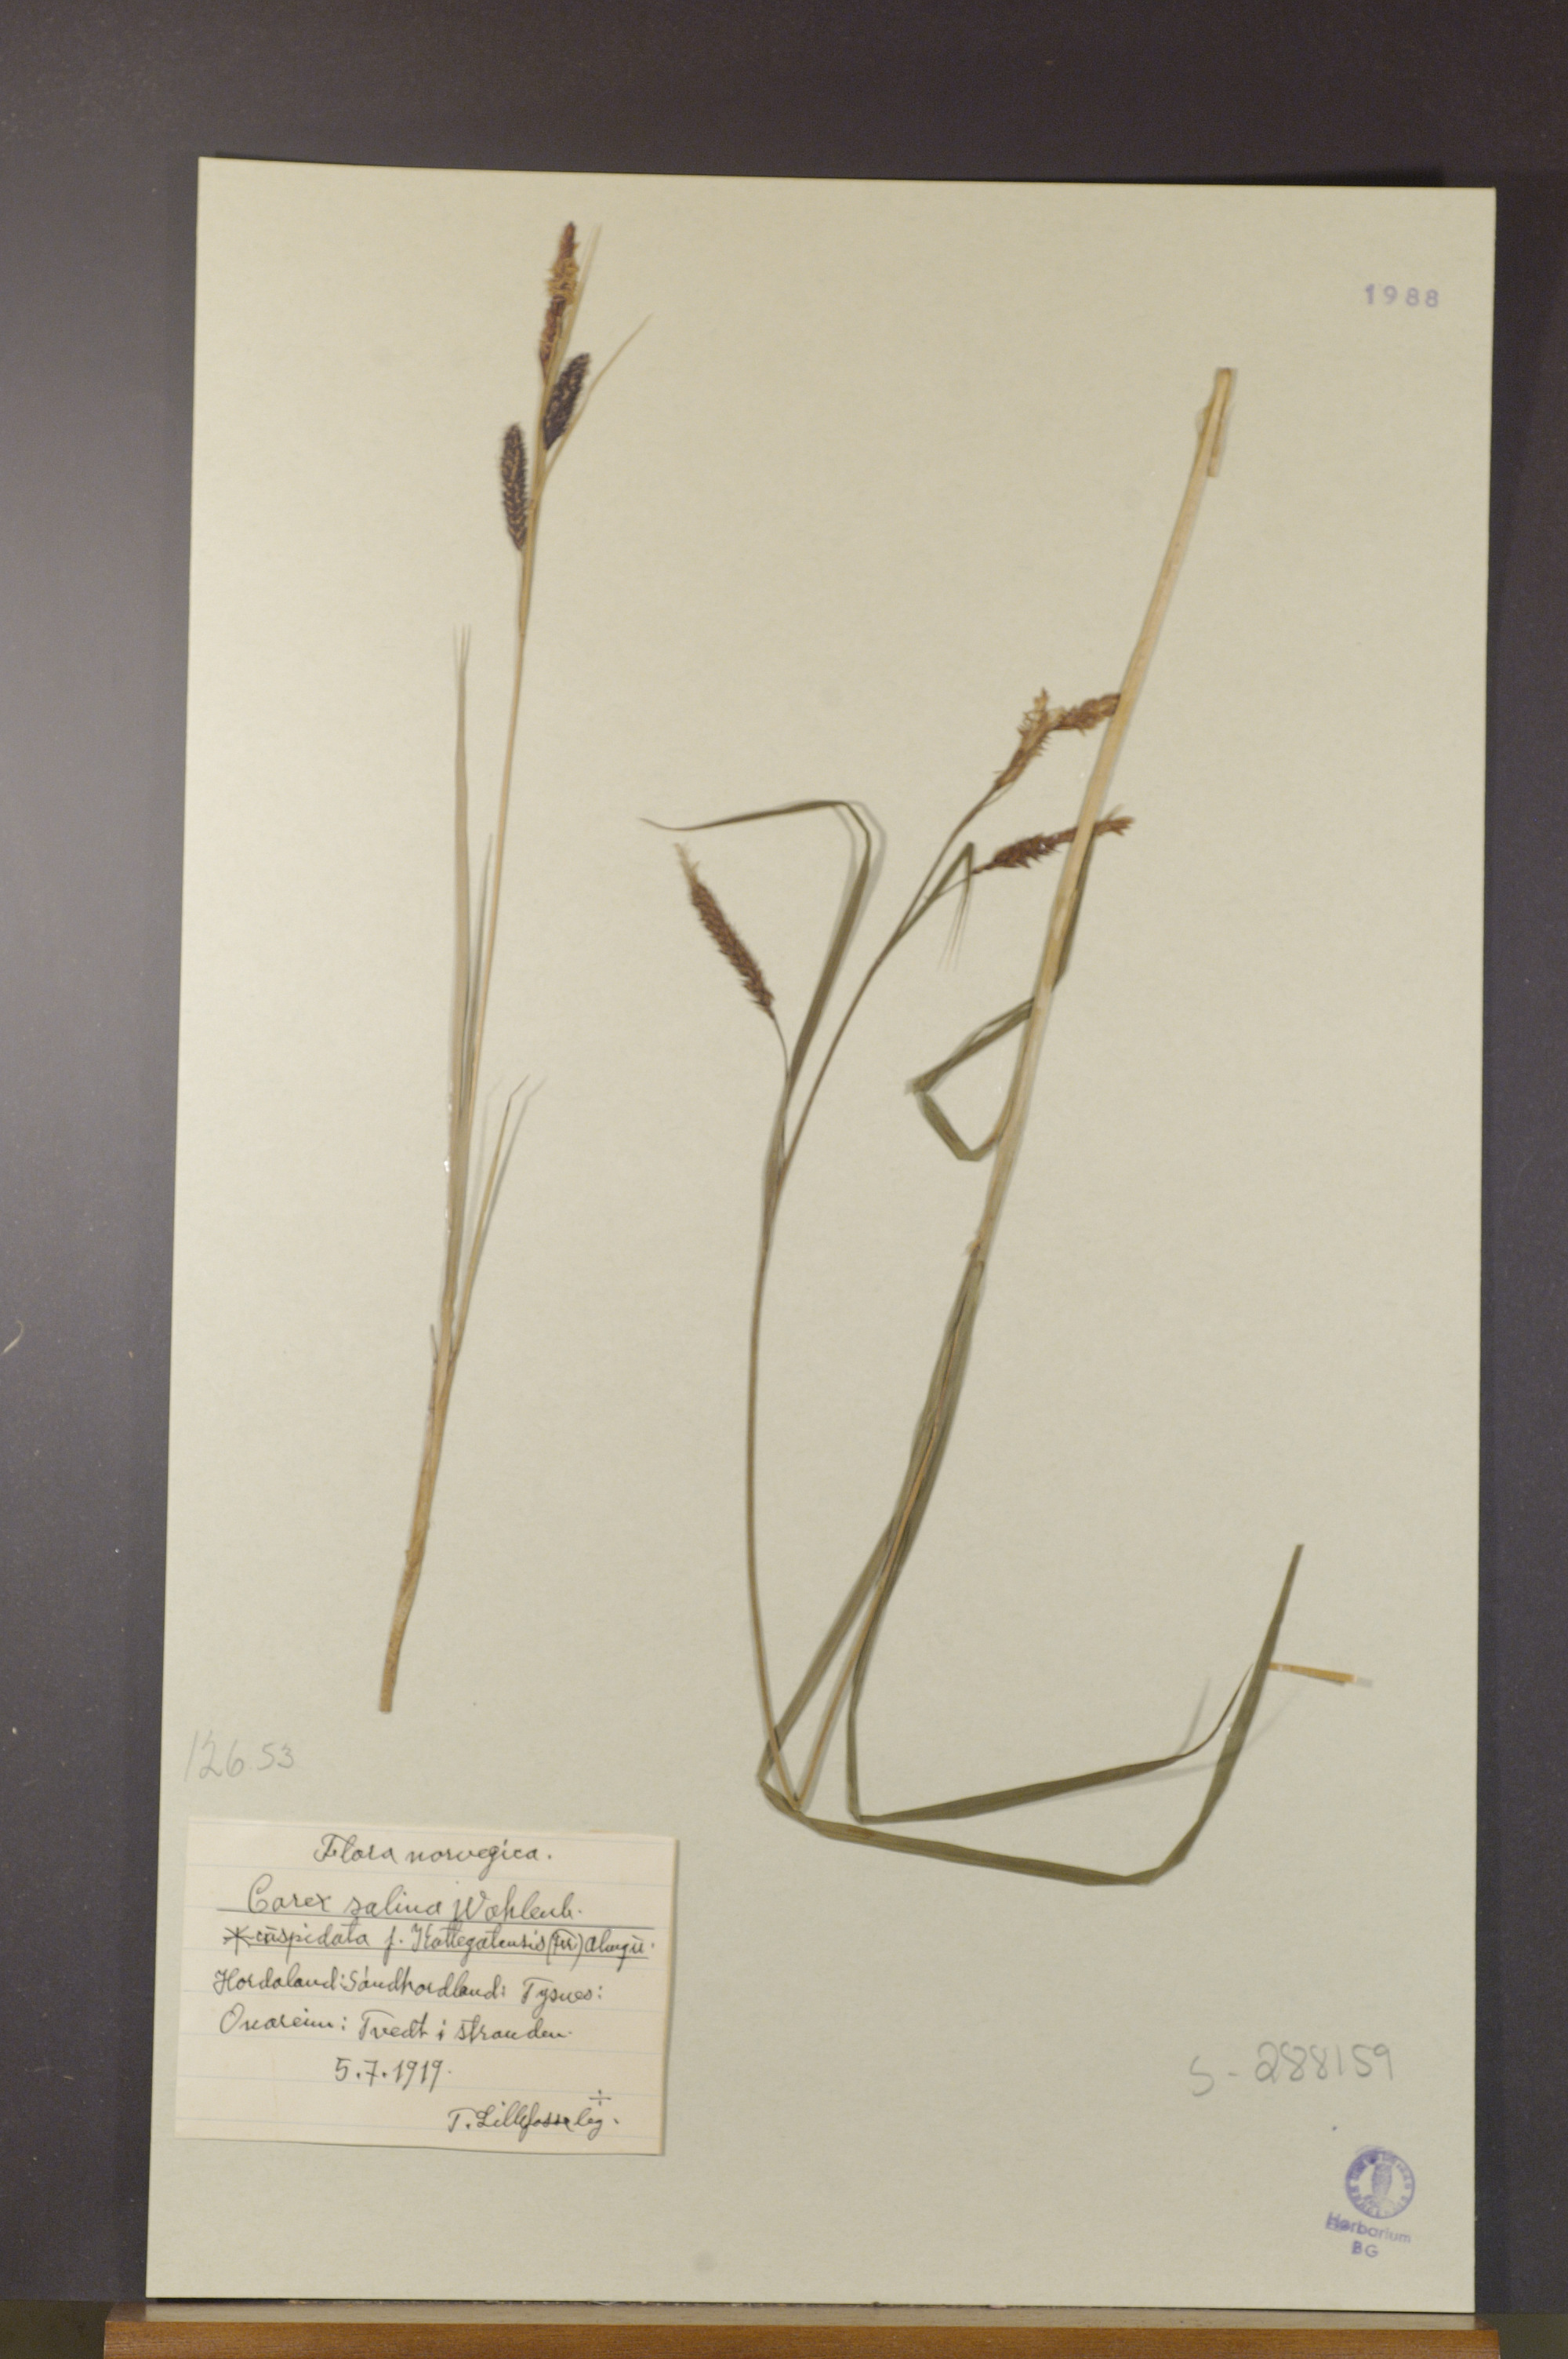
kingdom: Plantae
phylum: Tracheophyta
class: Liliopsida
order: Poales
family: Cyperaceae
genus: Carex
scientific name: Carex recta
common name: Estuarine sedge
